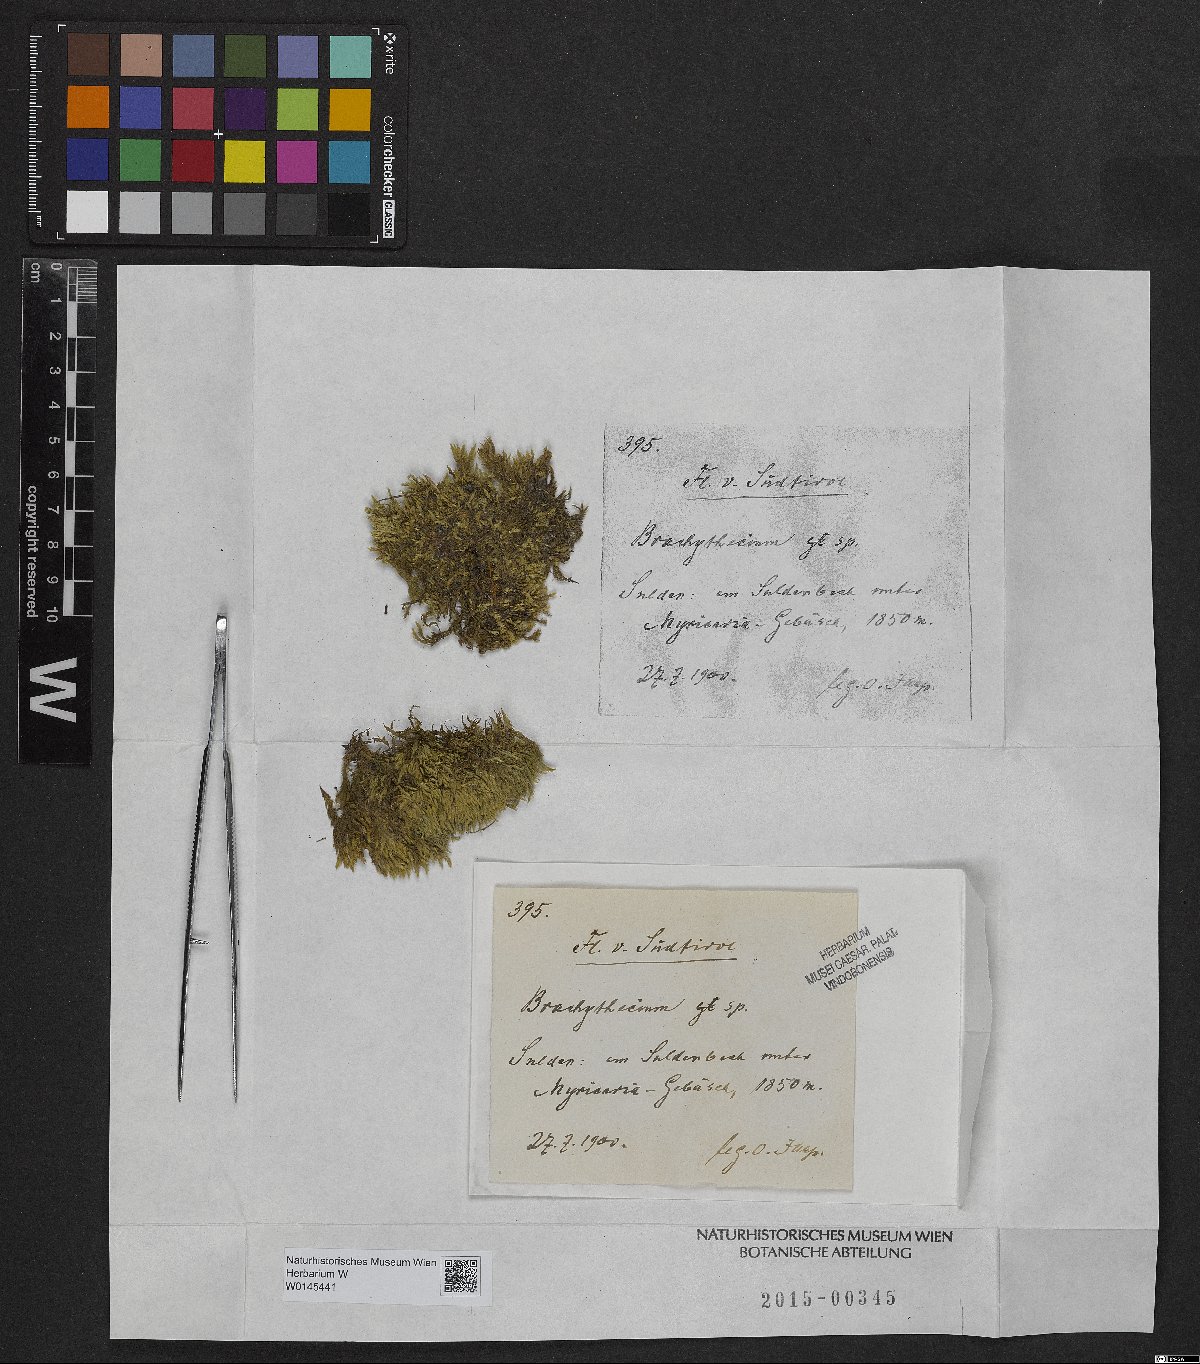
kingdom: Plantae
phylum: Bryophyta
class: Bryopsida
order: Hypnales
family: Brachytheciaceae
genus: Brachythecium
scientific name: Brachythecium
